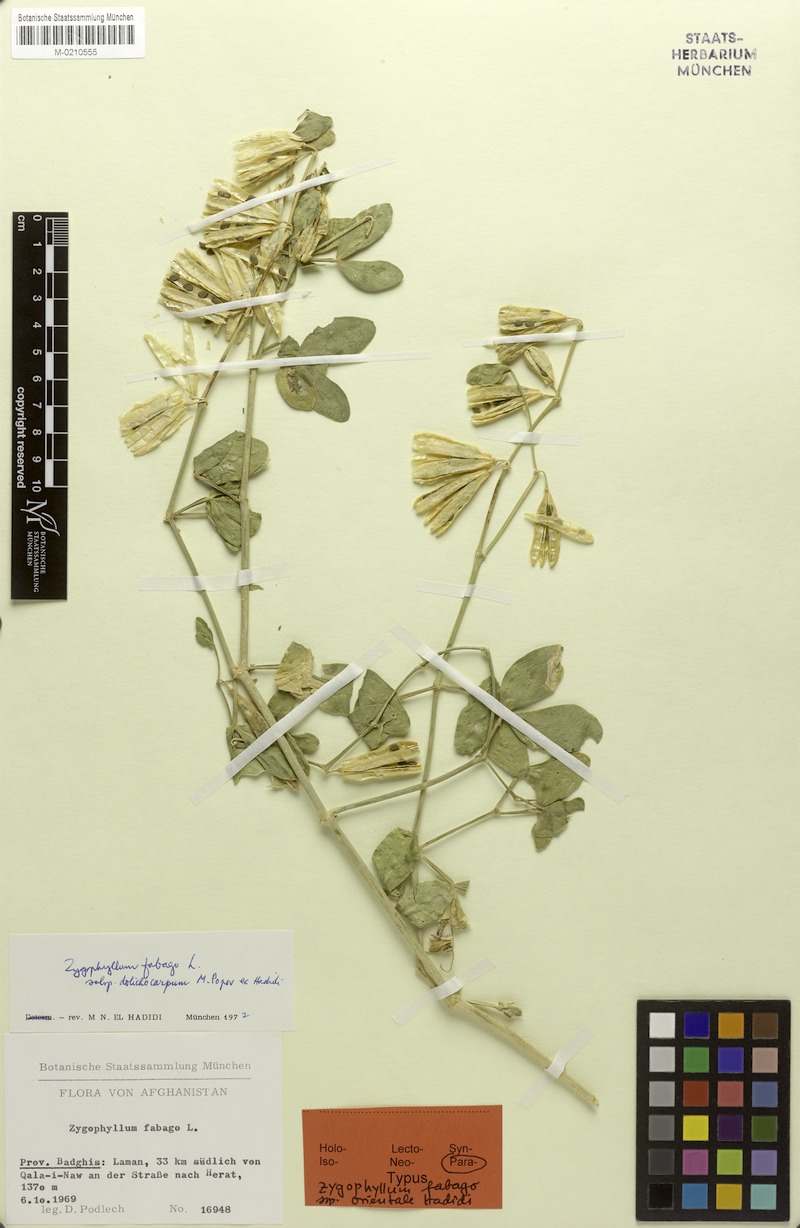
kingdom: Plantae
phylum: Tracheophyta
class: Magnoliopsida
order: Zygophyllales
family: Zygophyllaceae
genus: Zygophyllum
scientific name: Zygophyllum fabago
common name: Syrian beancaper
